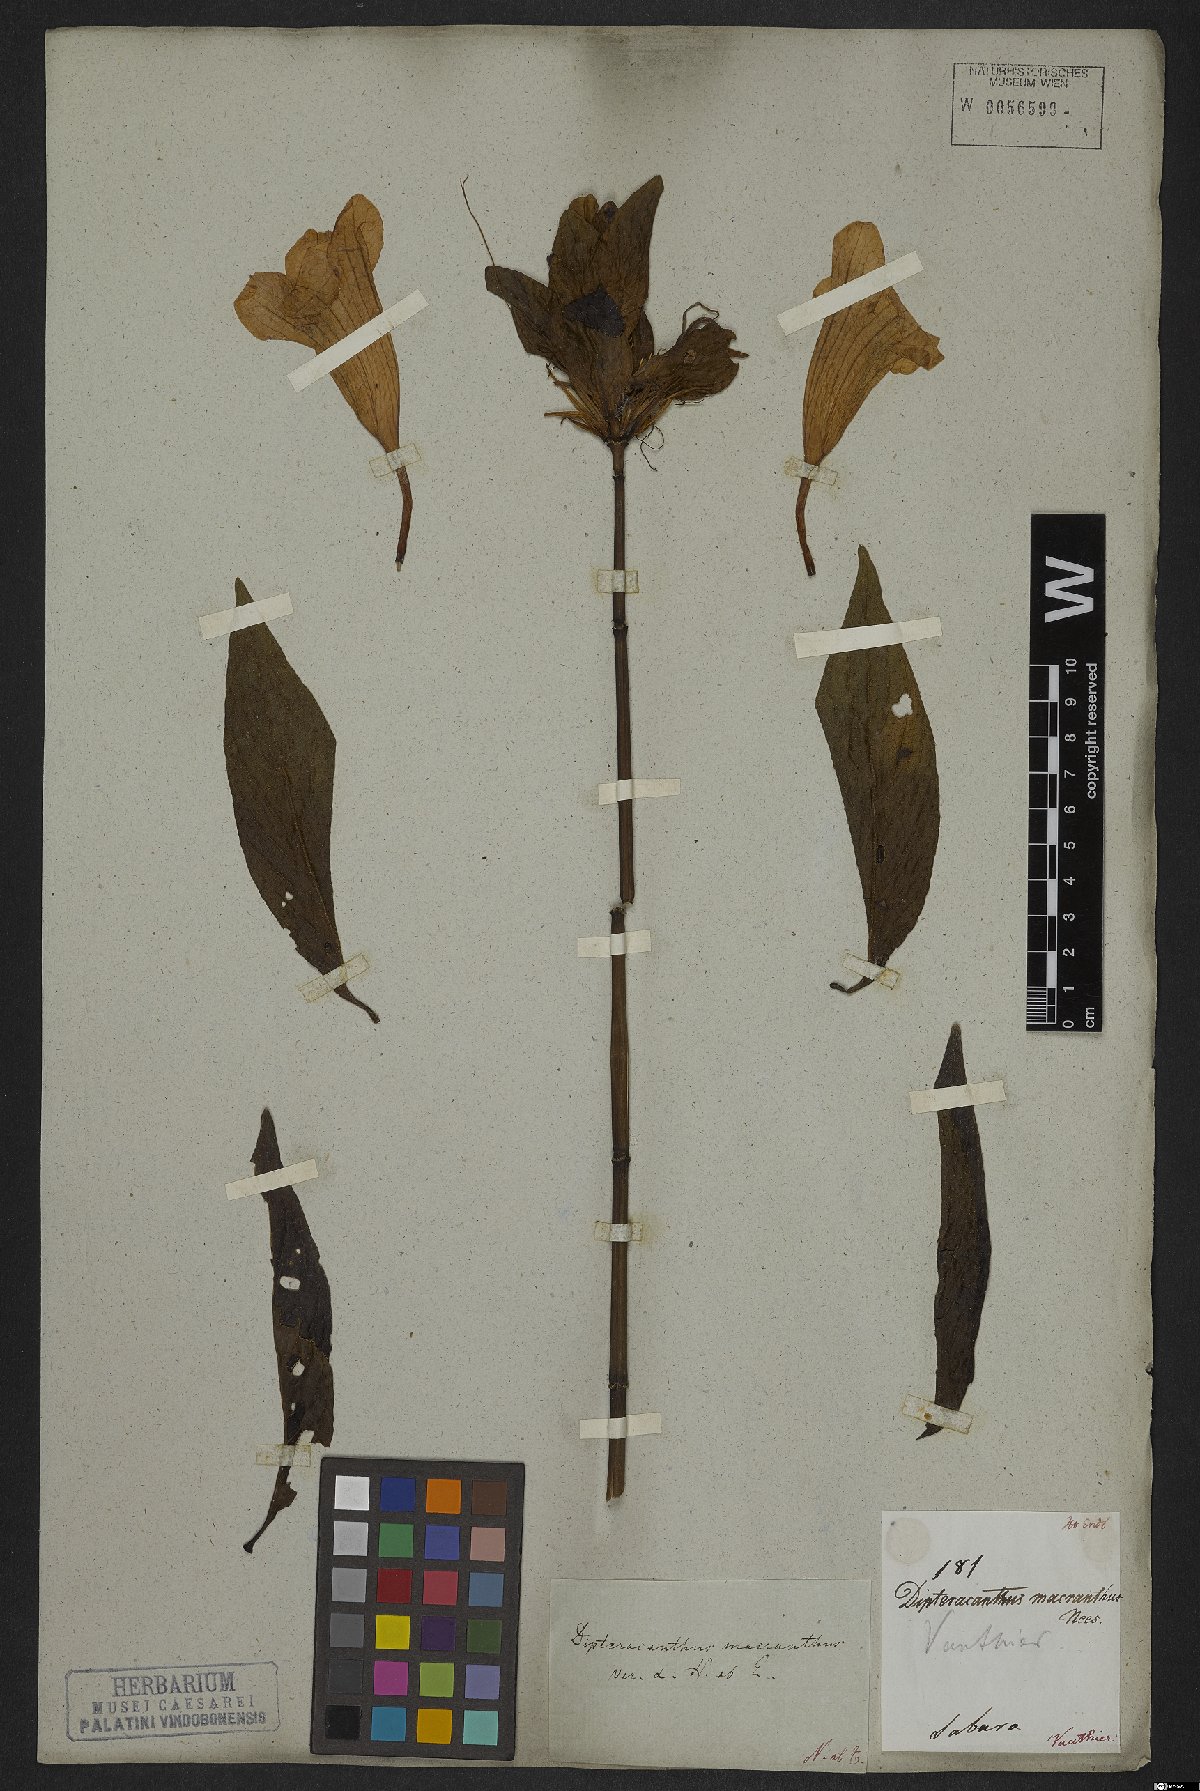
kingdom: Plantae
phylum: Tracheophyta
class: Magnoliopsida
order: Lamiales
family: Acanthaceae
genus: Ruellia
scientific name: Ruellia macrantha
